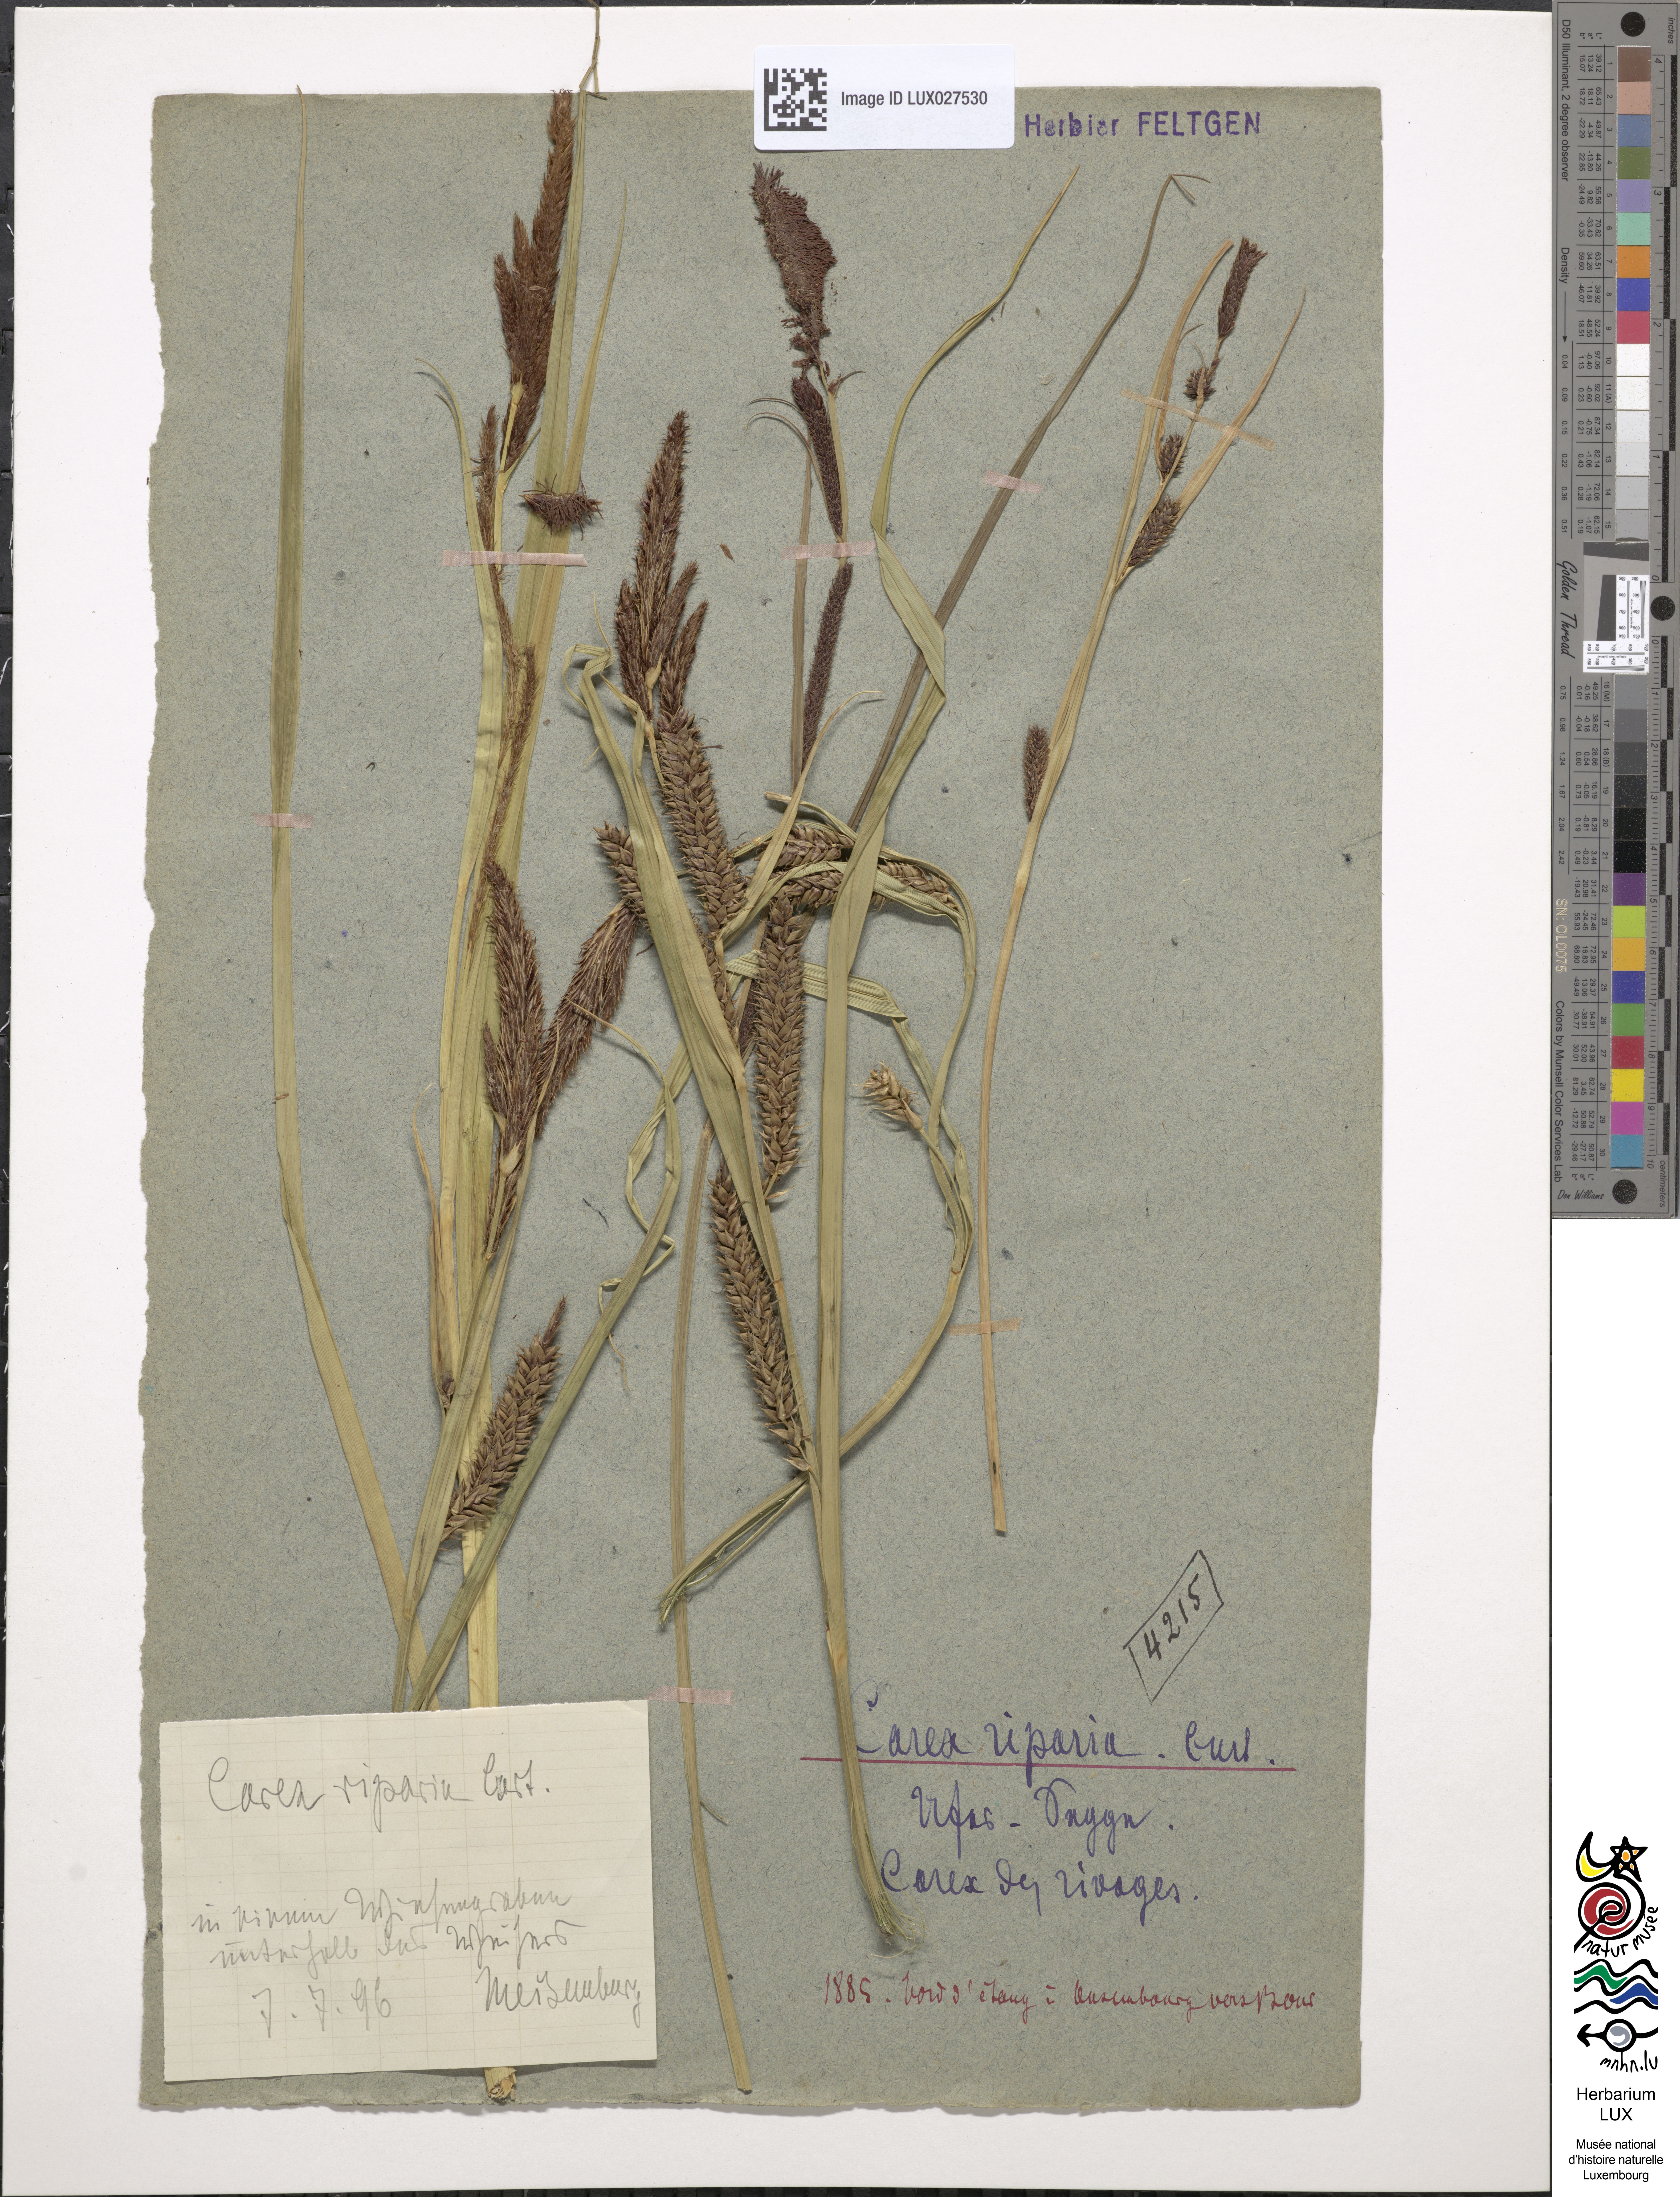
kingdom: Plantae
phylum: Tracheophyta
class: Liliopsida
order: Poales
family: Cyperaceae
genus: Carex
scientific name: Carex riparia
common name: Greater pond-sedge
